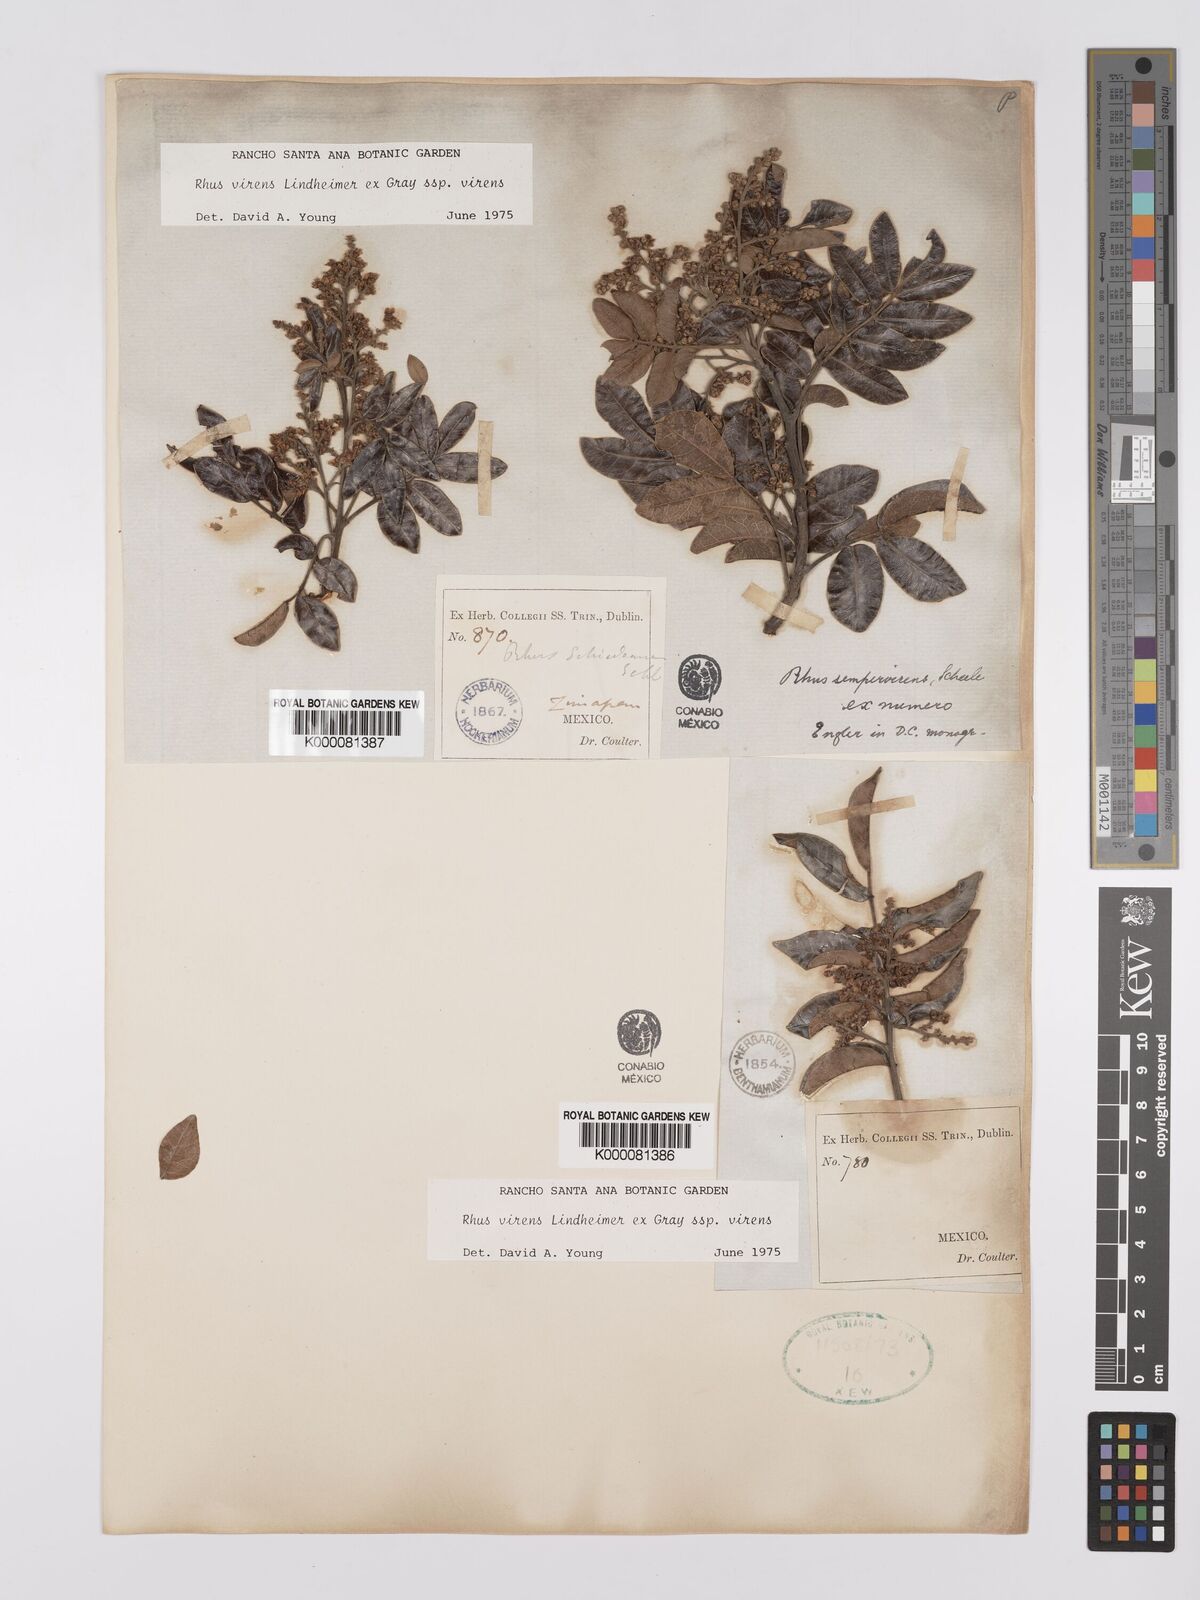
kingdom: Plantae
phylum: Tracheophyta
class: Magnoliopsida
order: Sapindales
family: Anacardiaceae
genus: Rhus
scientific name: Rhus virens
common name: Evergreen sumac
